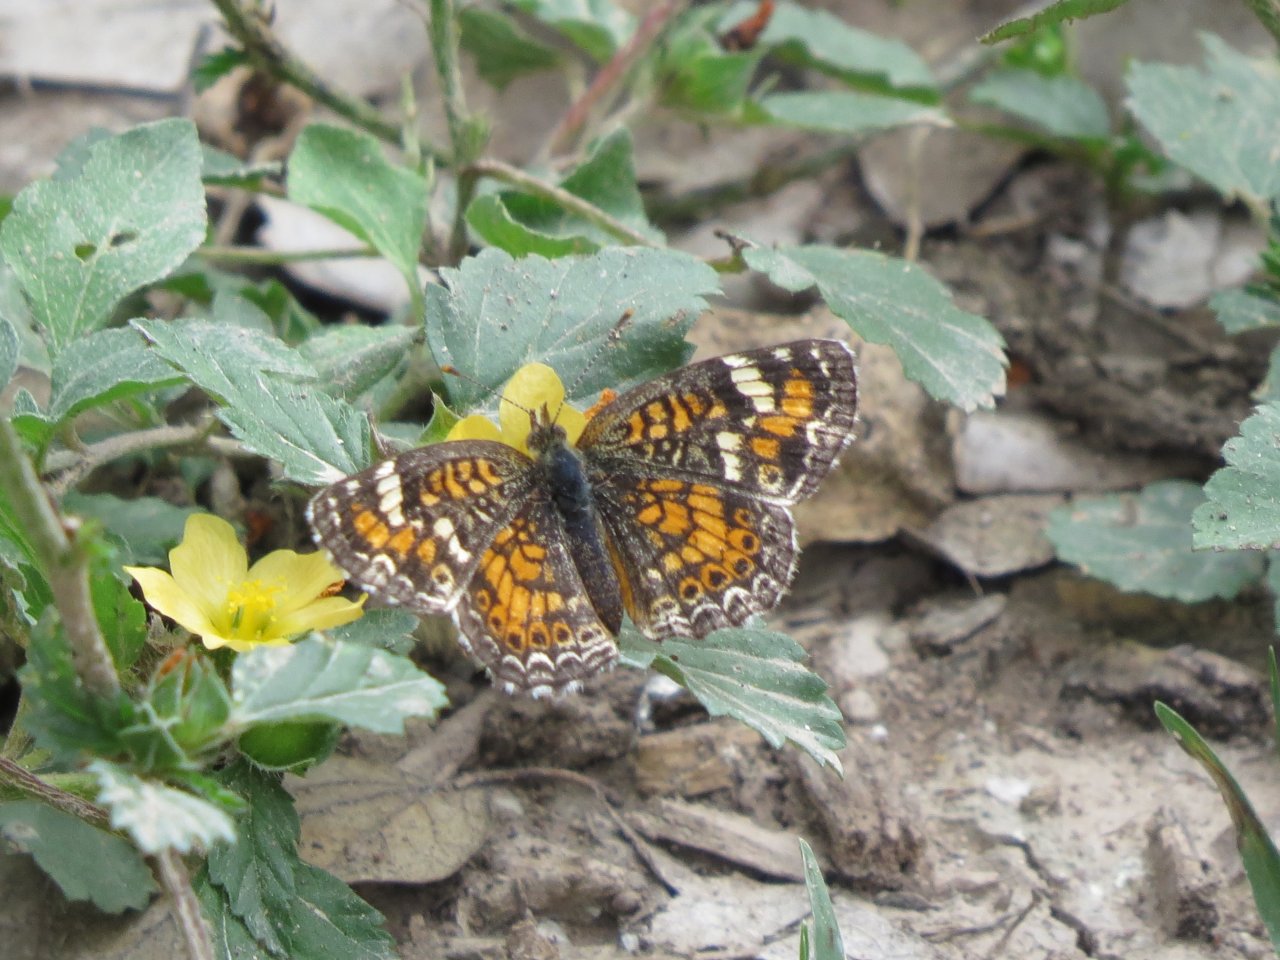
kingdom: Animalia
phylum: Arthropoda
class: Insecta
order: Lepidoptera
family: Nymphalidae
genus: Phyciodes
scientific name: Phyciodes phaon
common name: Phaon Crescent
